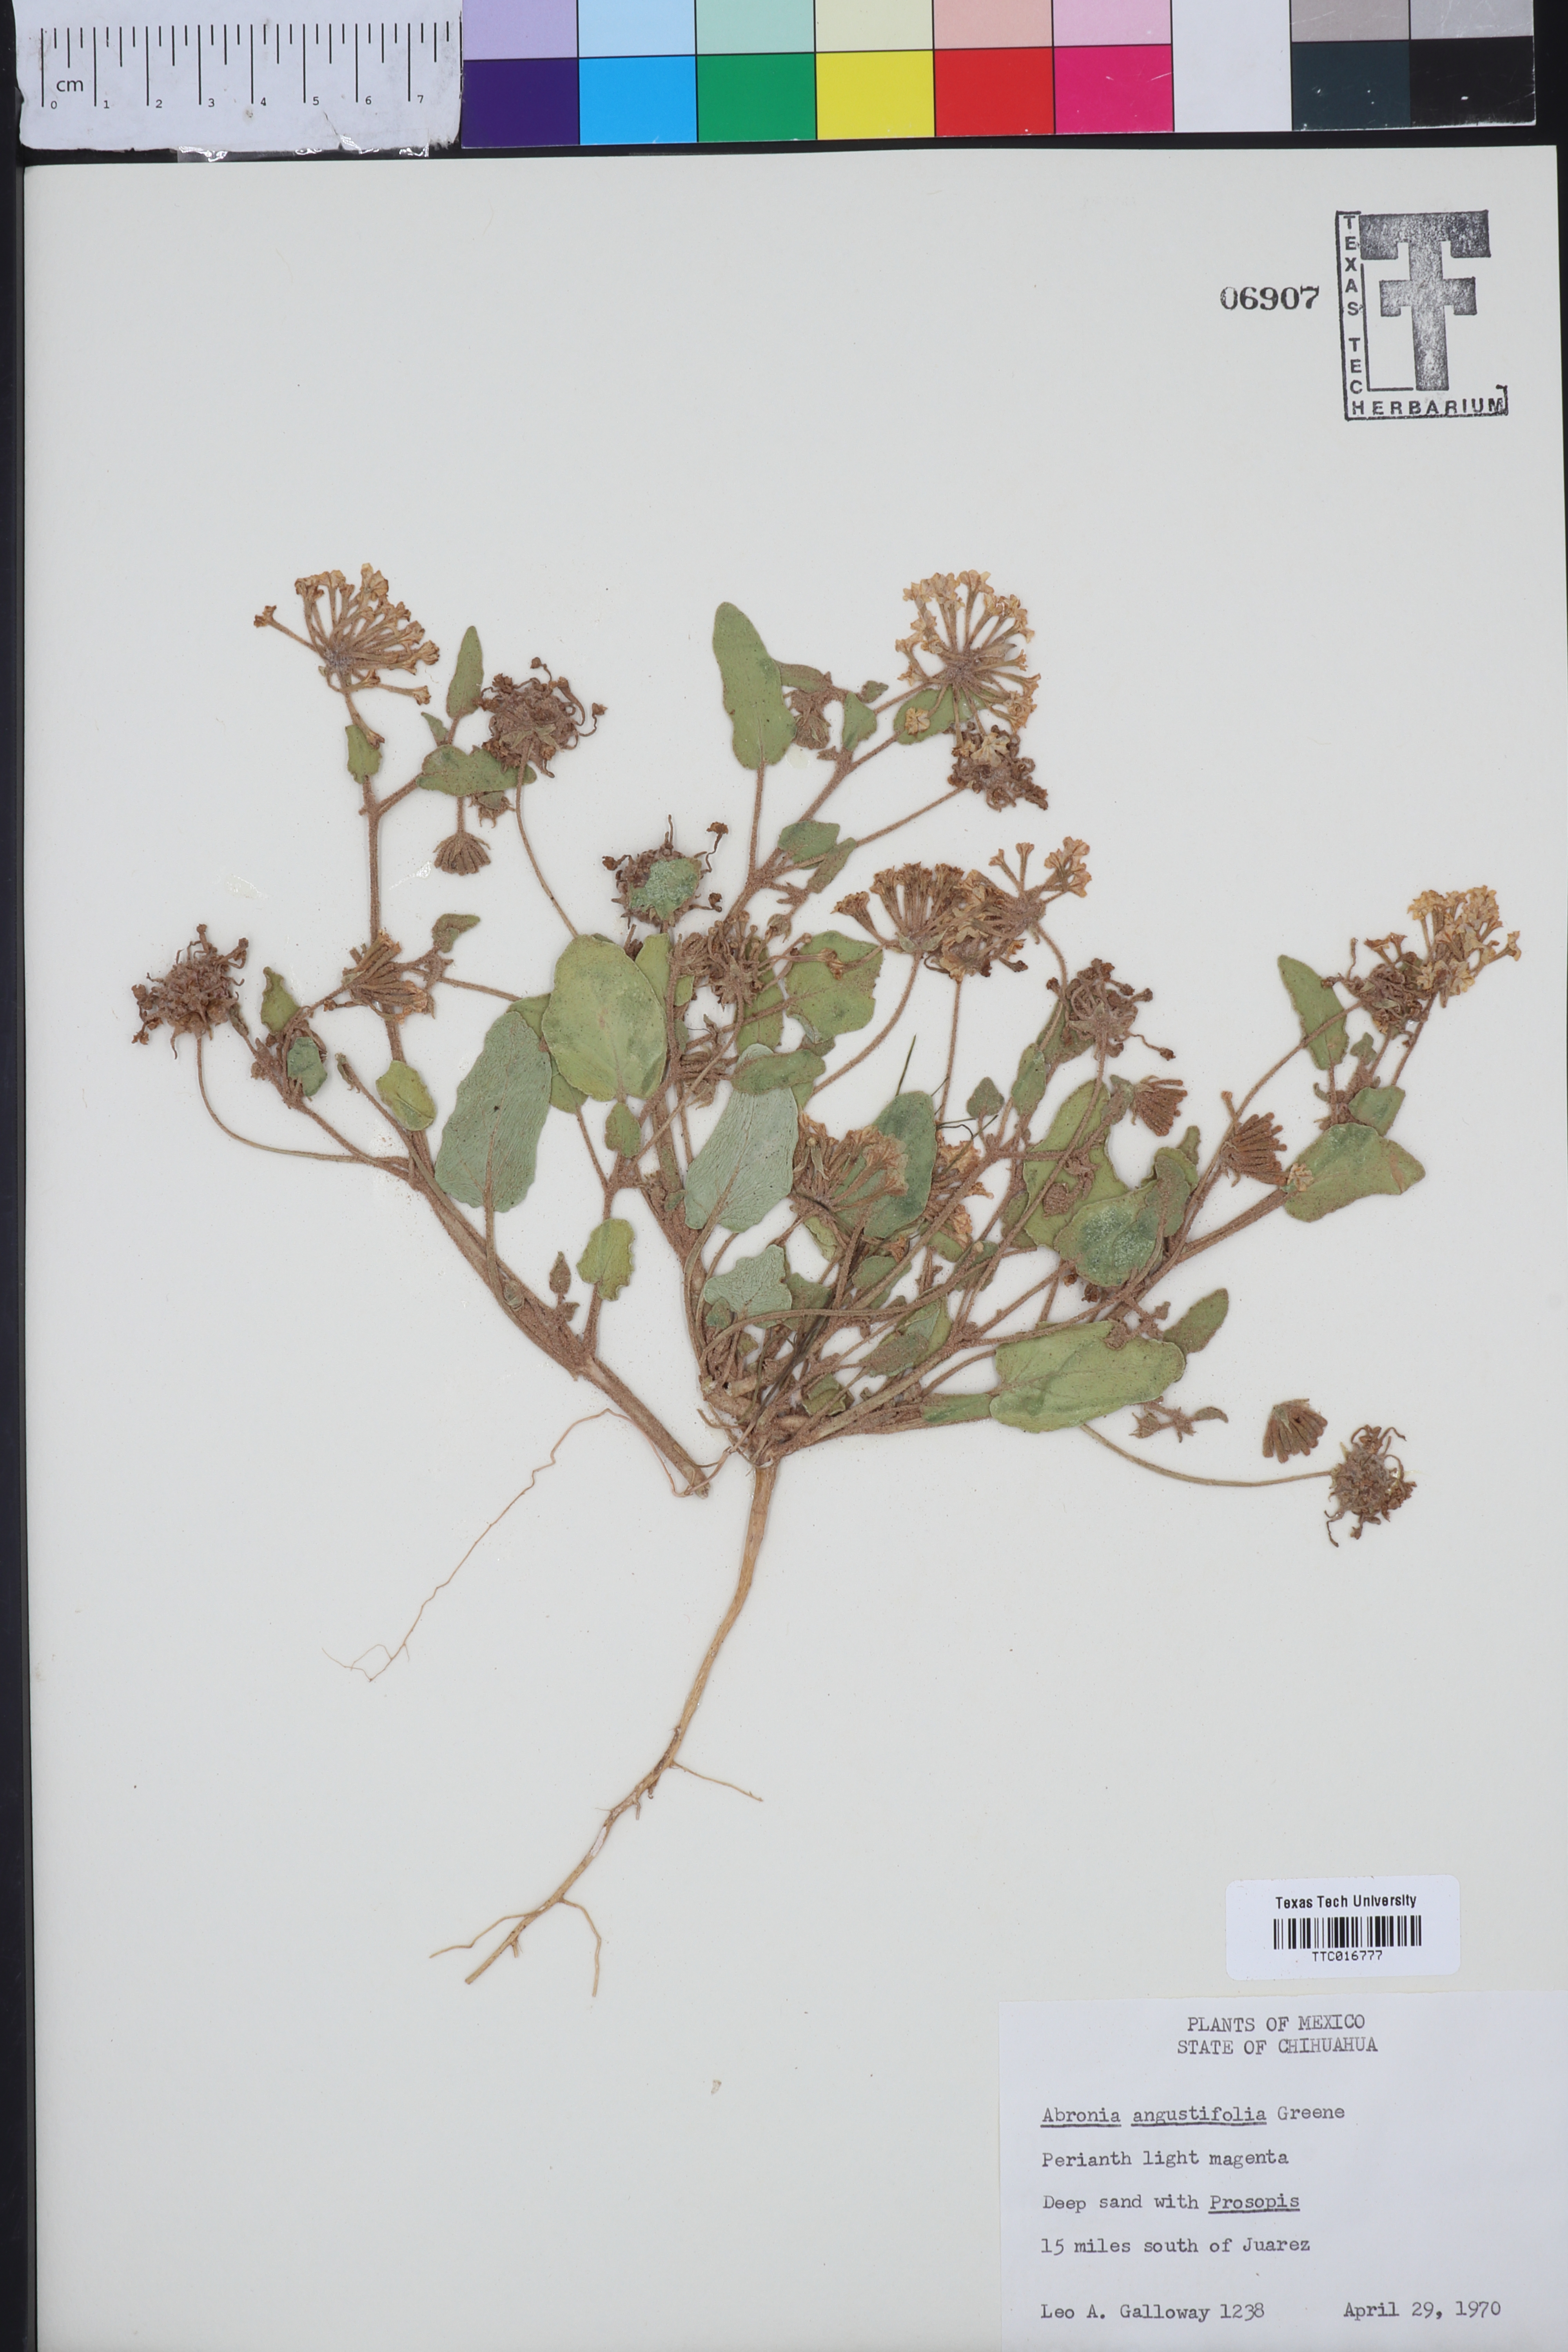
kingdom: Plantae
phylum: Tracheophyta
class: Magnoliopsida
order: Caryophyllales
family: Nyctaginaceae
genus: Abronia
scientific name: Abronia angustifolia
